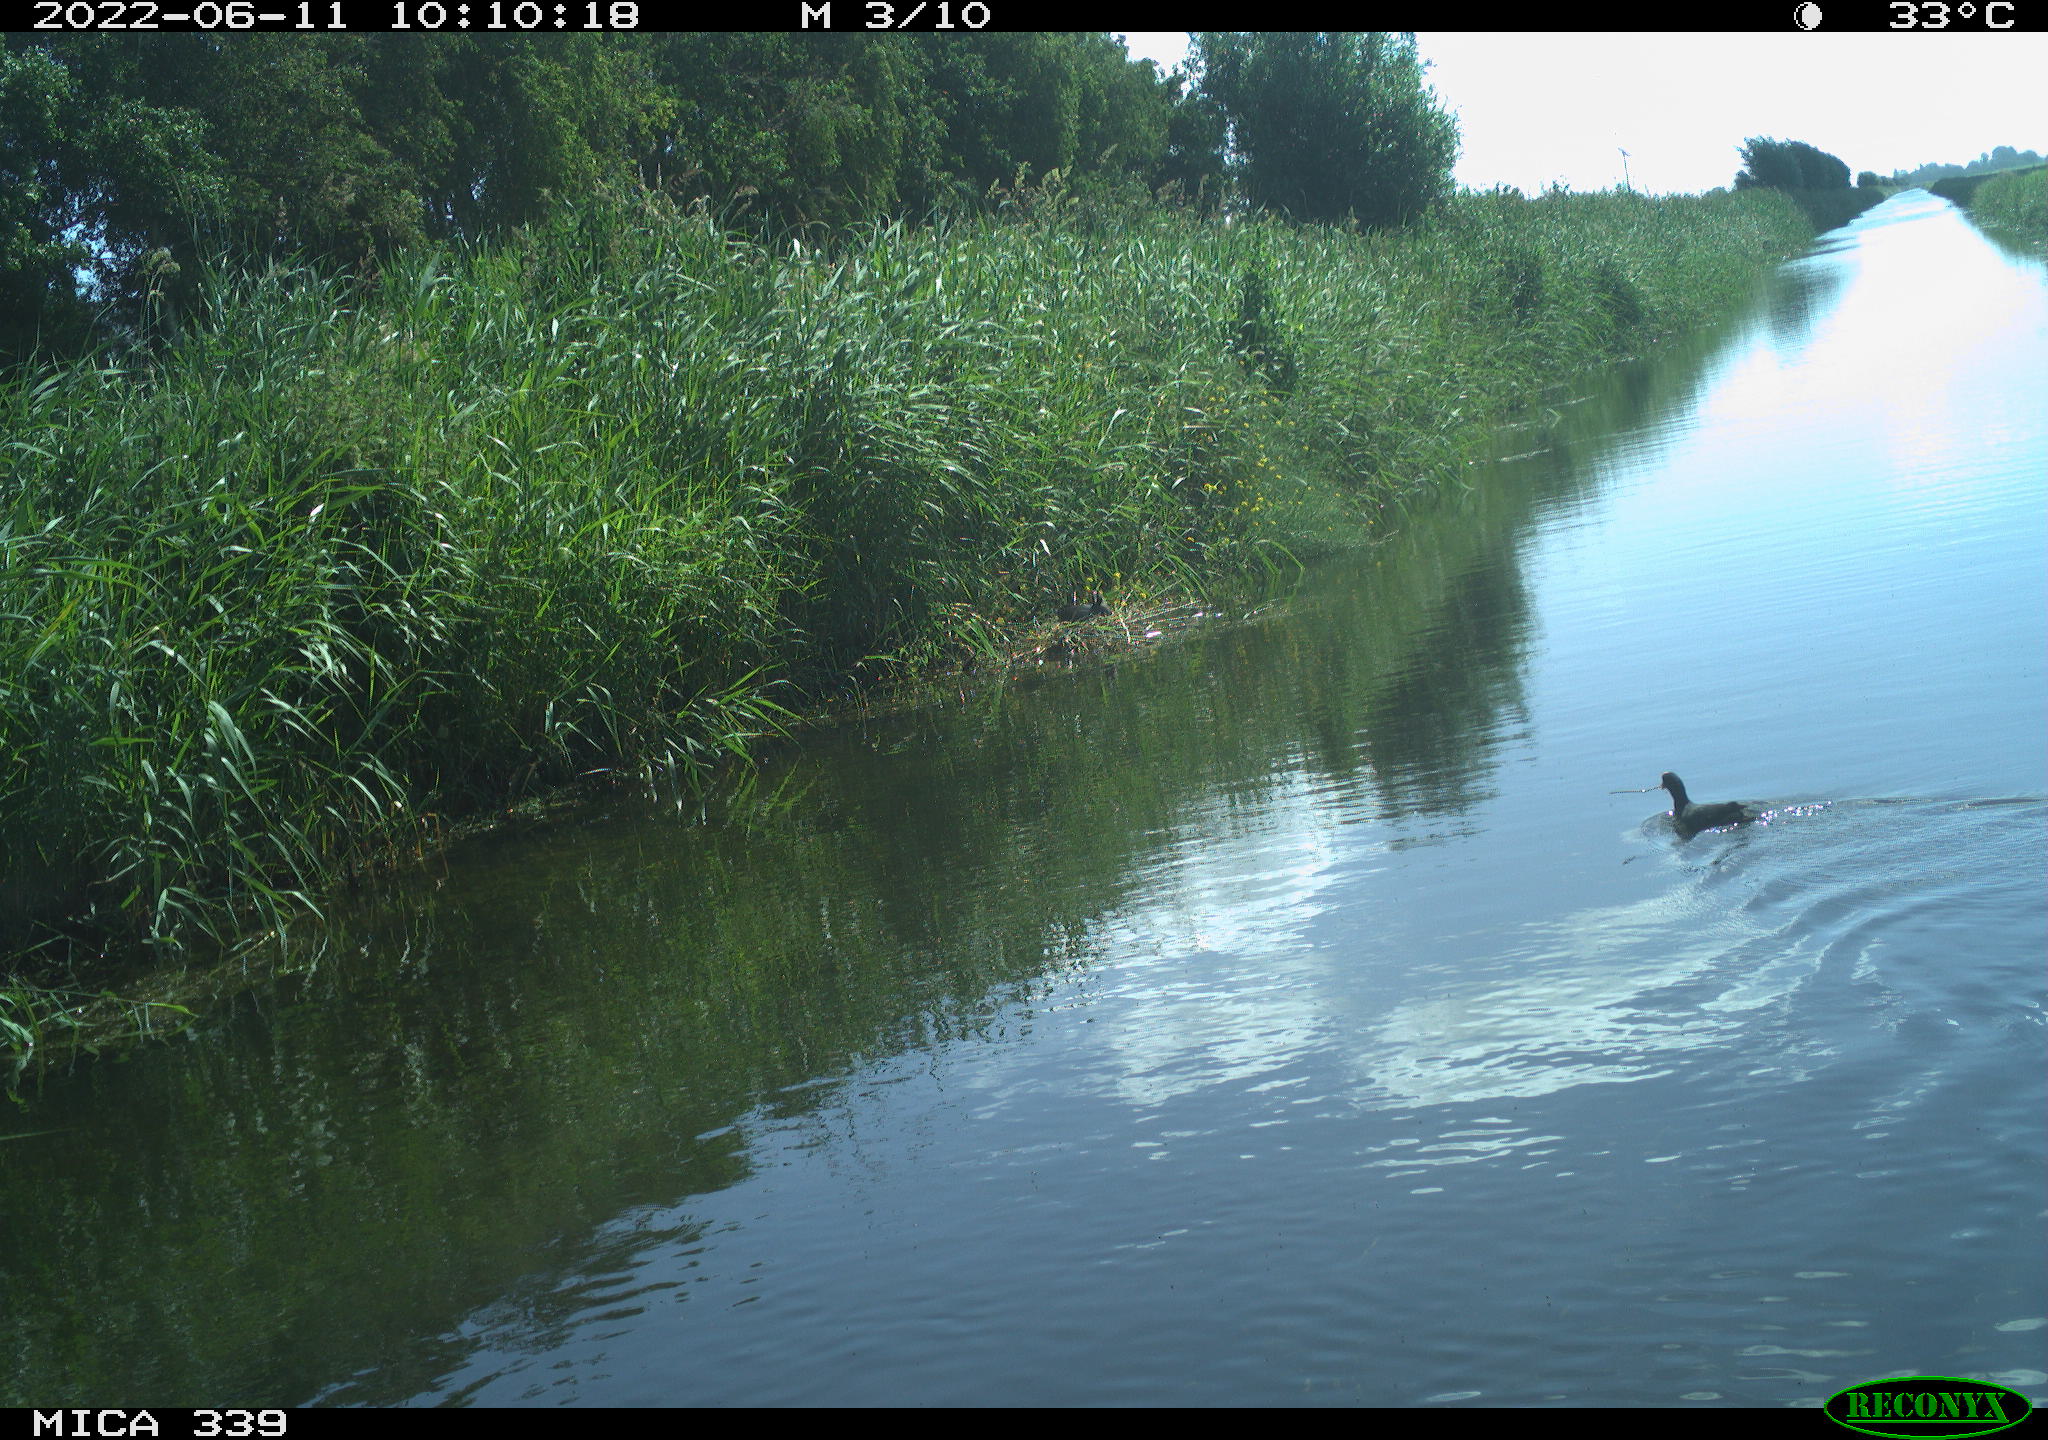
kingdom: Animalia
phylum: Chordata
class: Aves
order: Gruiformes
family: Rallidae
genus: Fulica
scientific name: Fulica atra
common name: Eurasian coot
